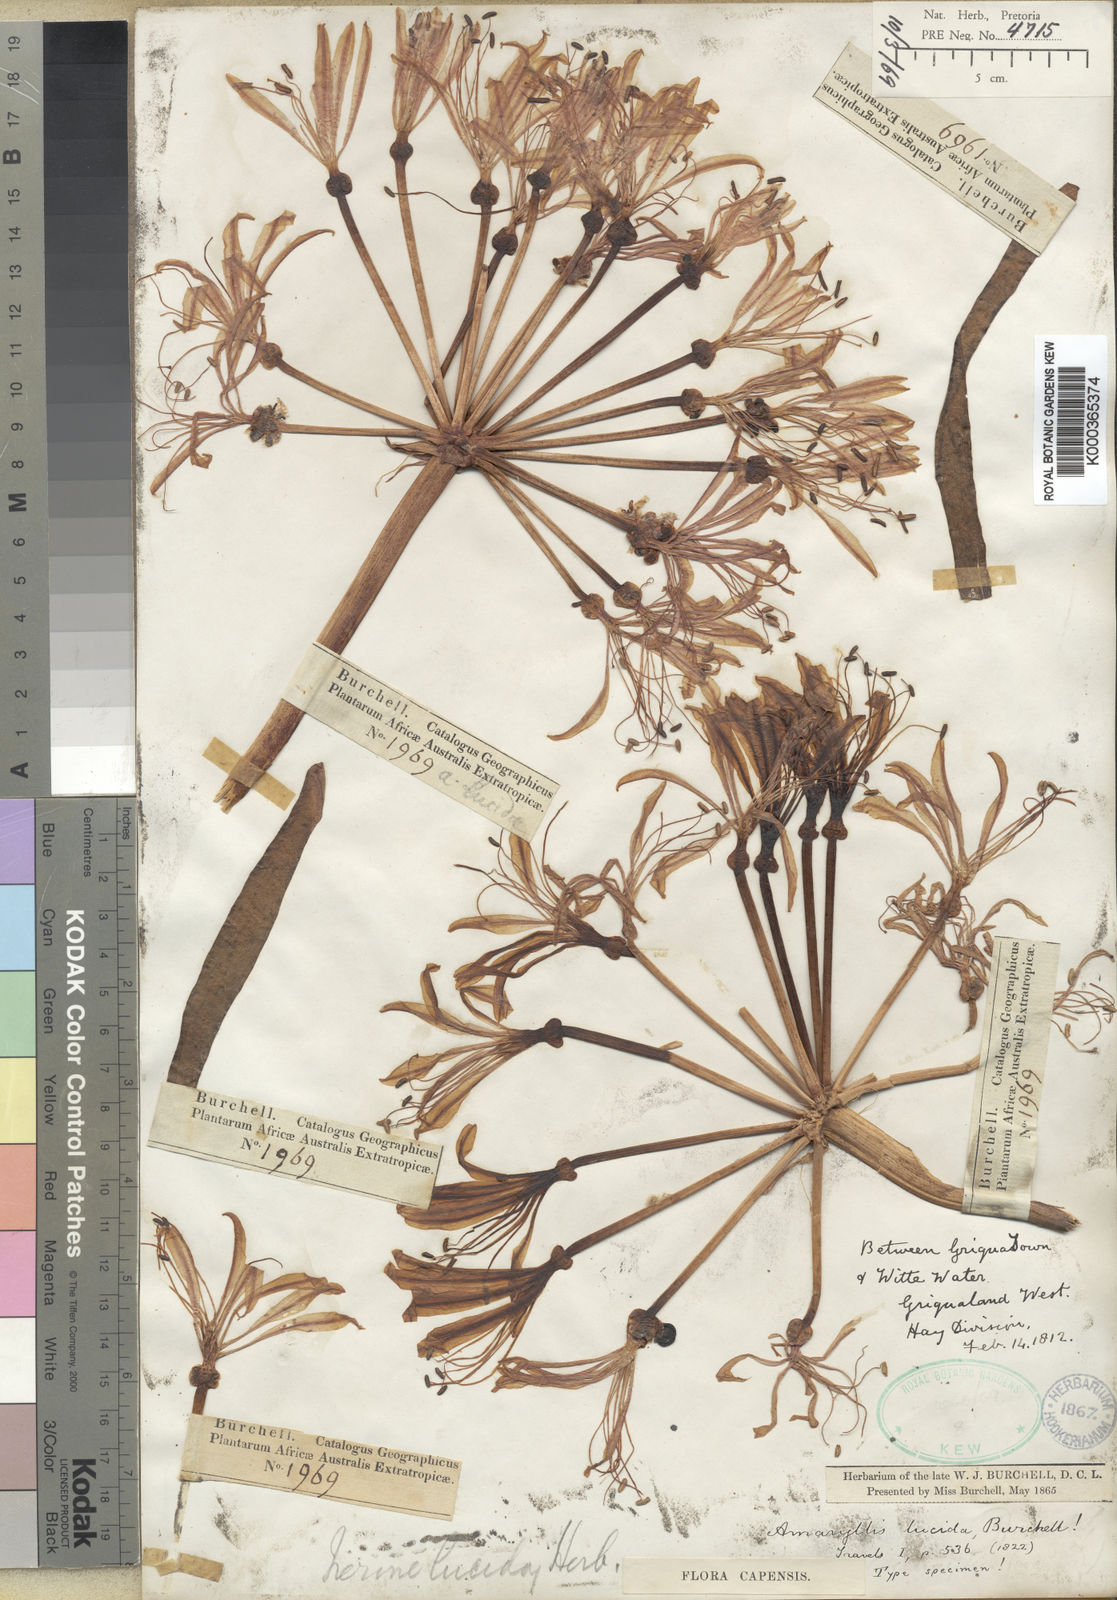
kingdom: Plantae
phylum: Tracheophyta
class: Liliopsida
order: Asparagales
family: Amaryllidaceae
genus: Nerine
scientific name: Nerine laticoma
